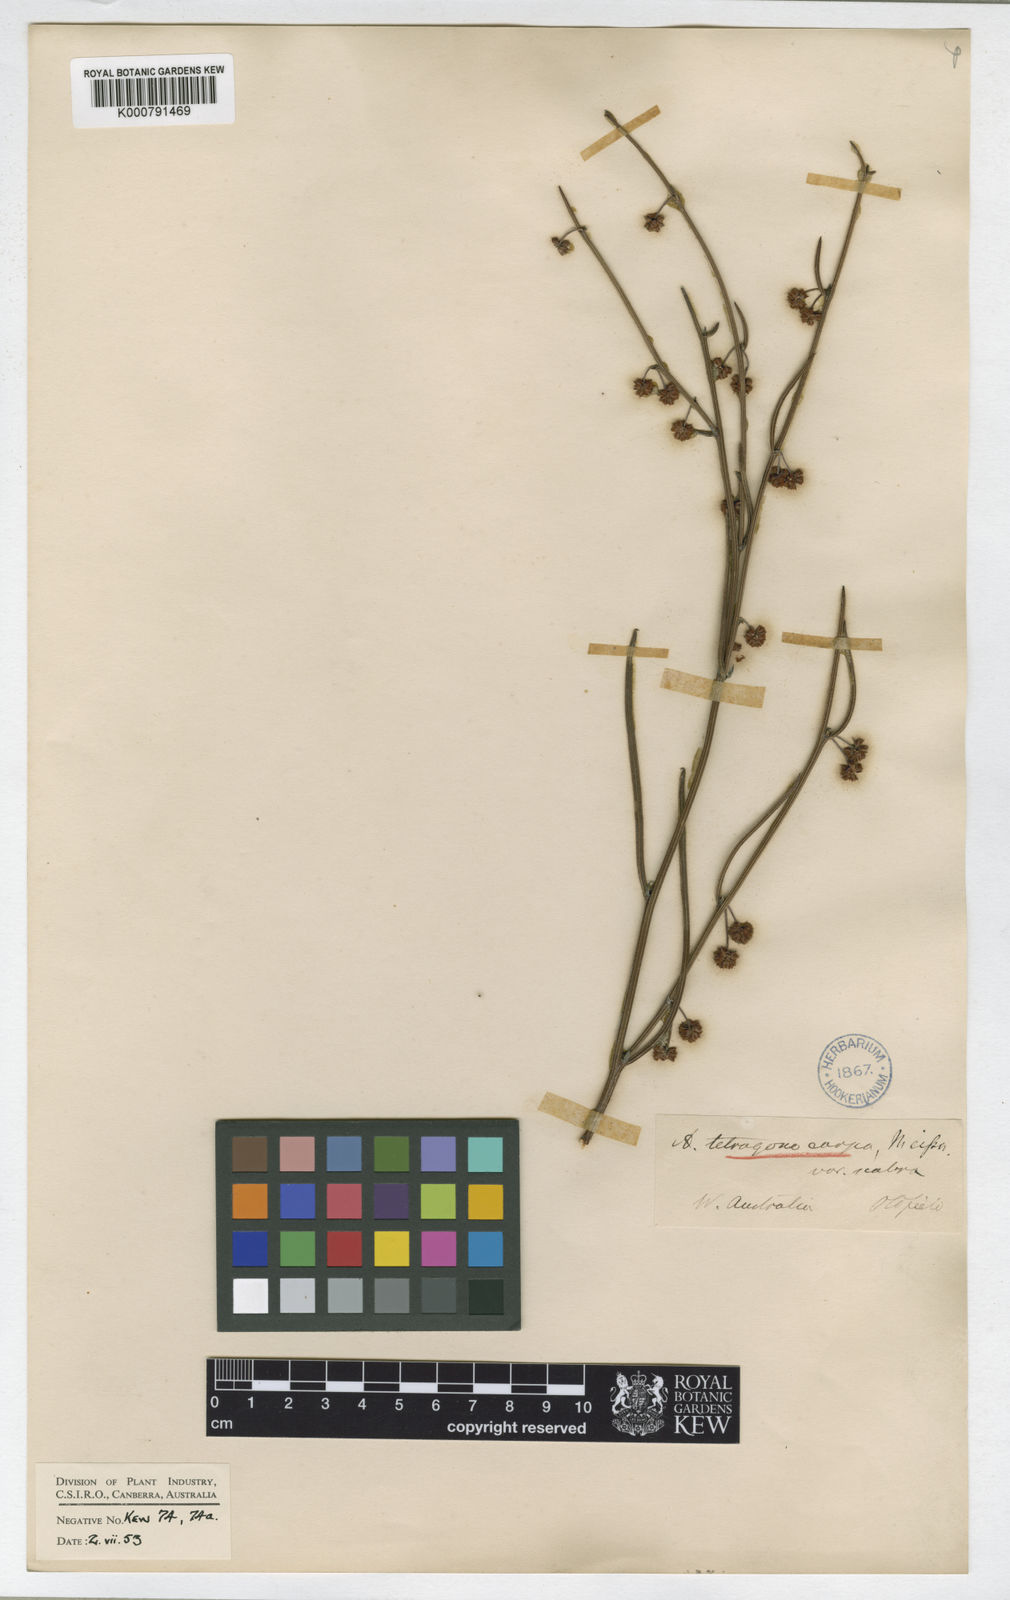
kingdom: Plantae
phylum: Tracheophyta
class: Magnoliopsida
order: Fabales
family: Fabaceae
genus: Acacia
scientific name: Acacia tetragonocarpa
